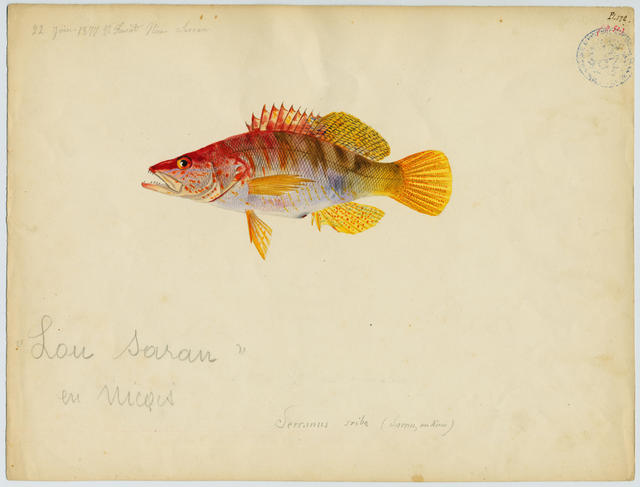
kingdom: Animalia
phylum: Chordata
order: Perciformes
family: Serranidae
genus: Serranus
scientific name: Serranus scriba
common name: Painted comber
